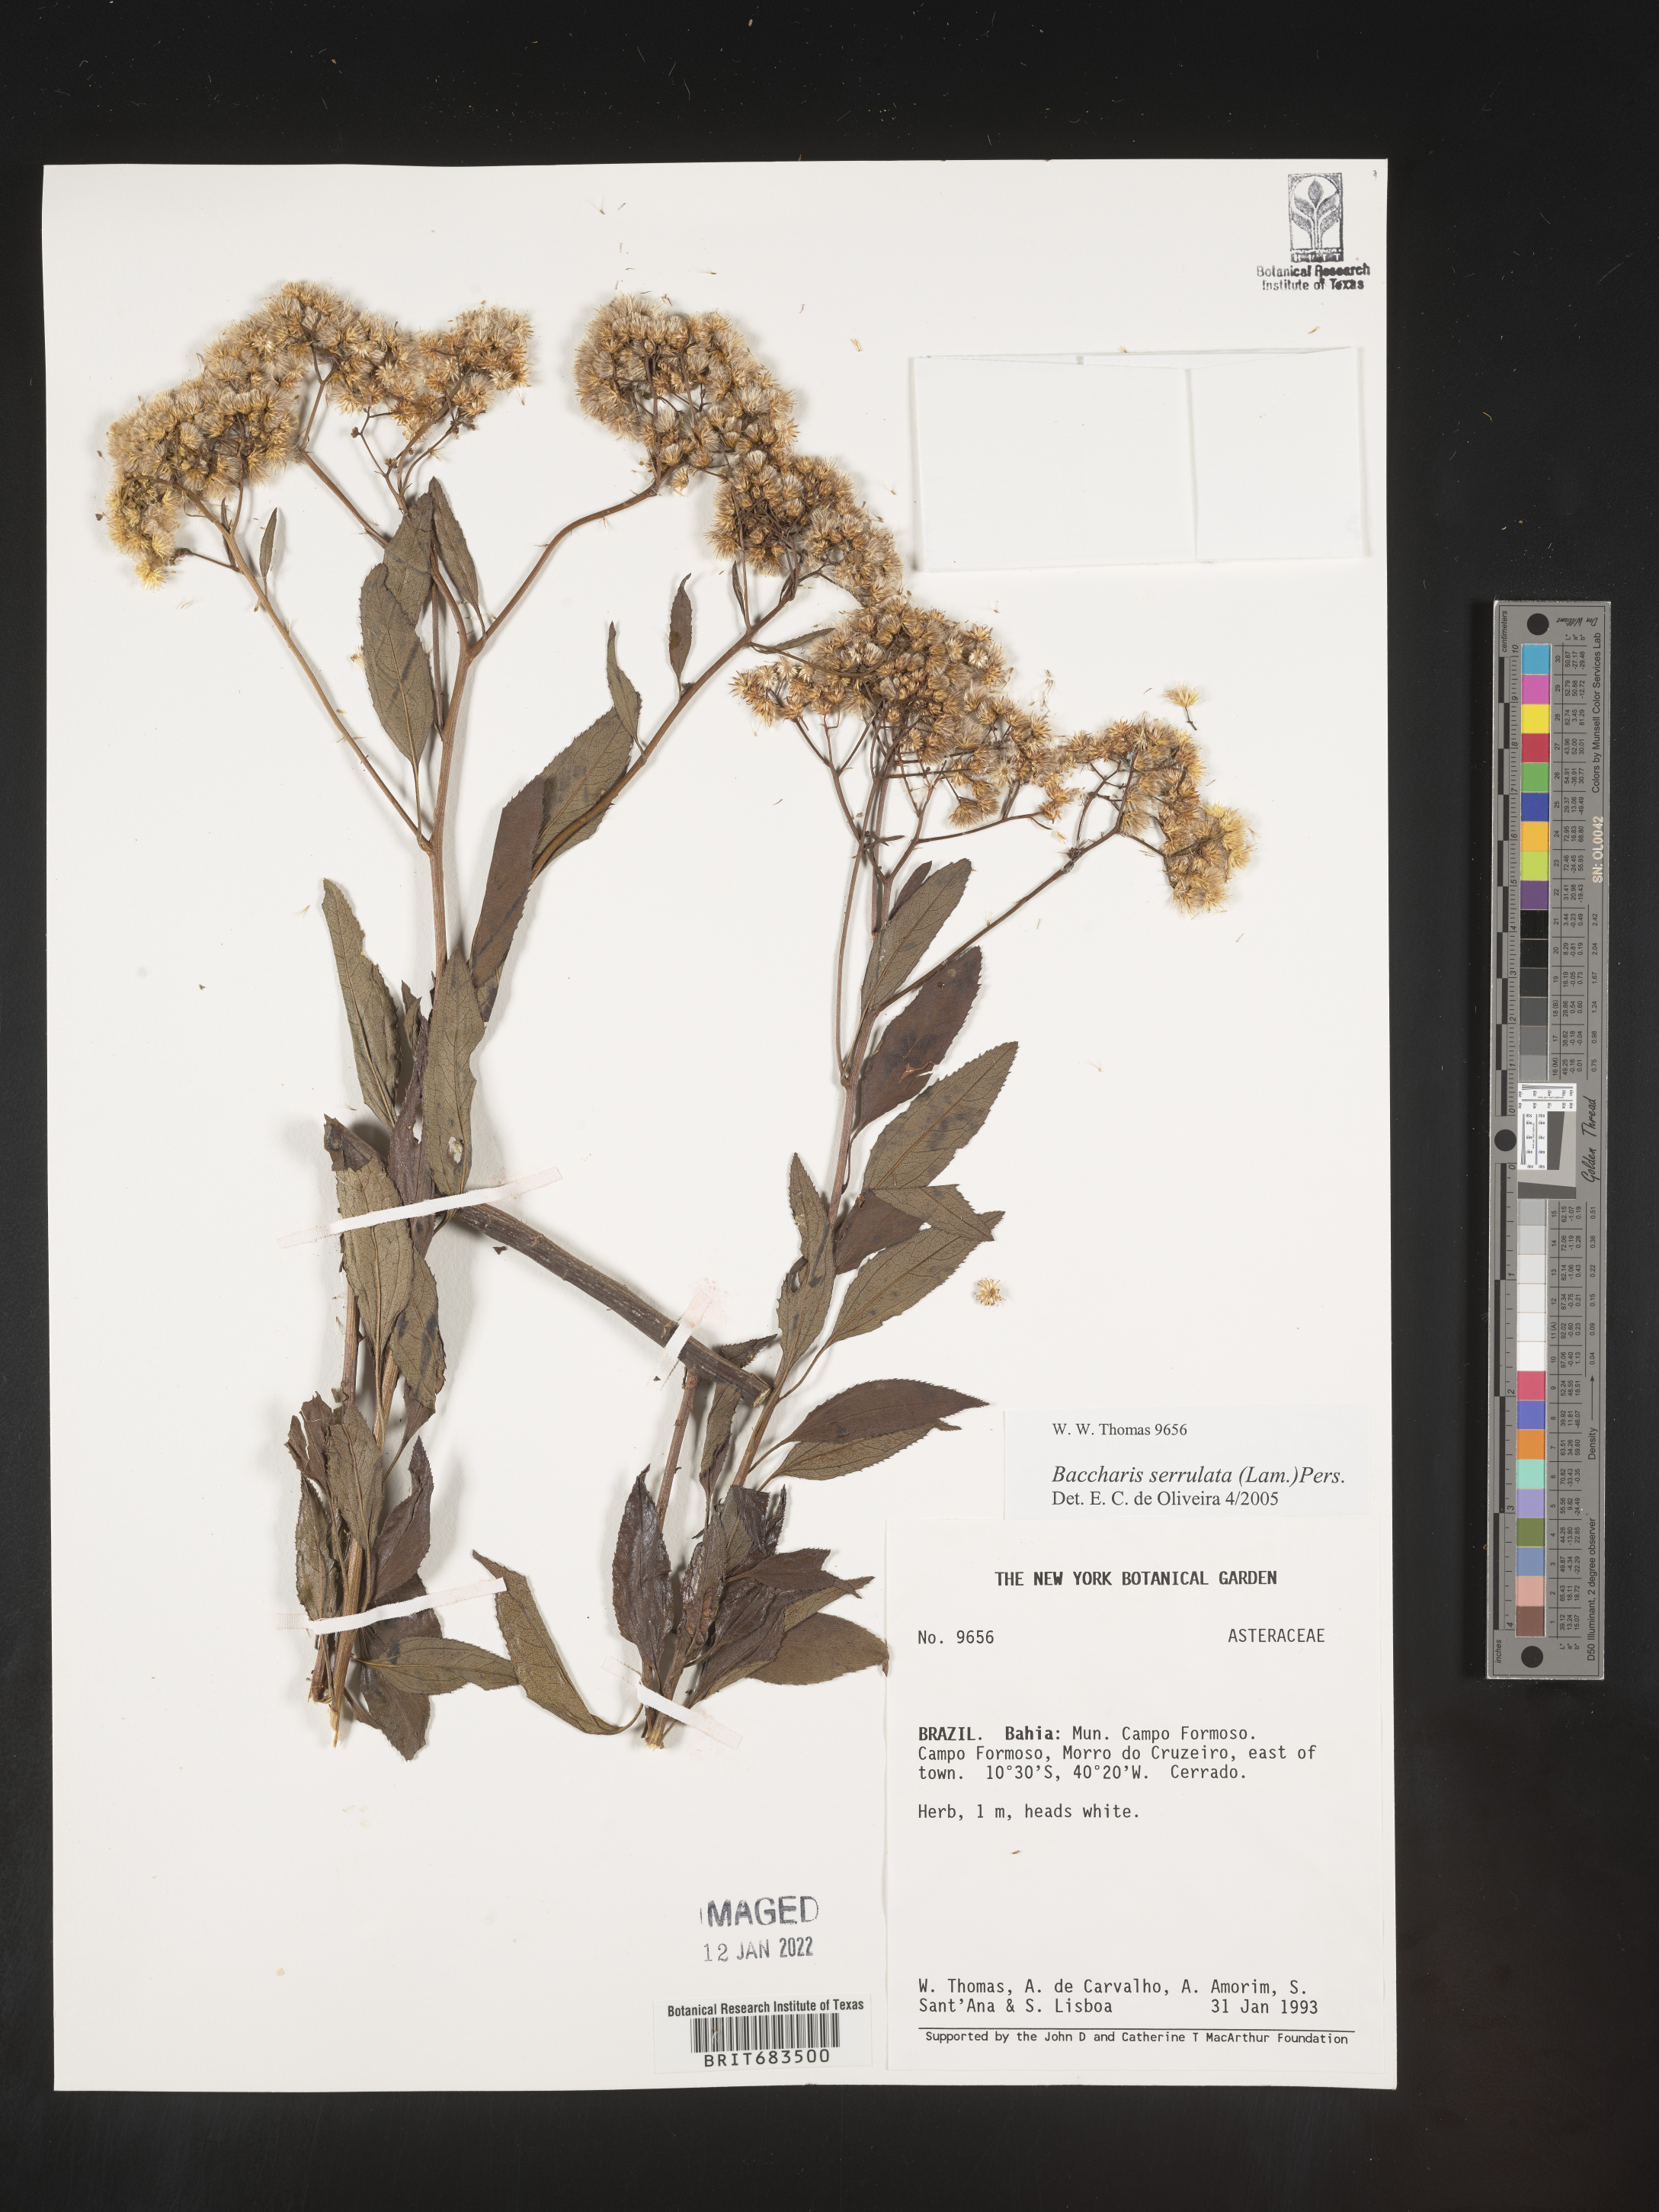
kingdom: Plantae
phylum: Tracheophyta
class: Magnoliopsida
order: Asterales
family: Asteraceae
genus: Baccharis
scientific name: Baccharis
